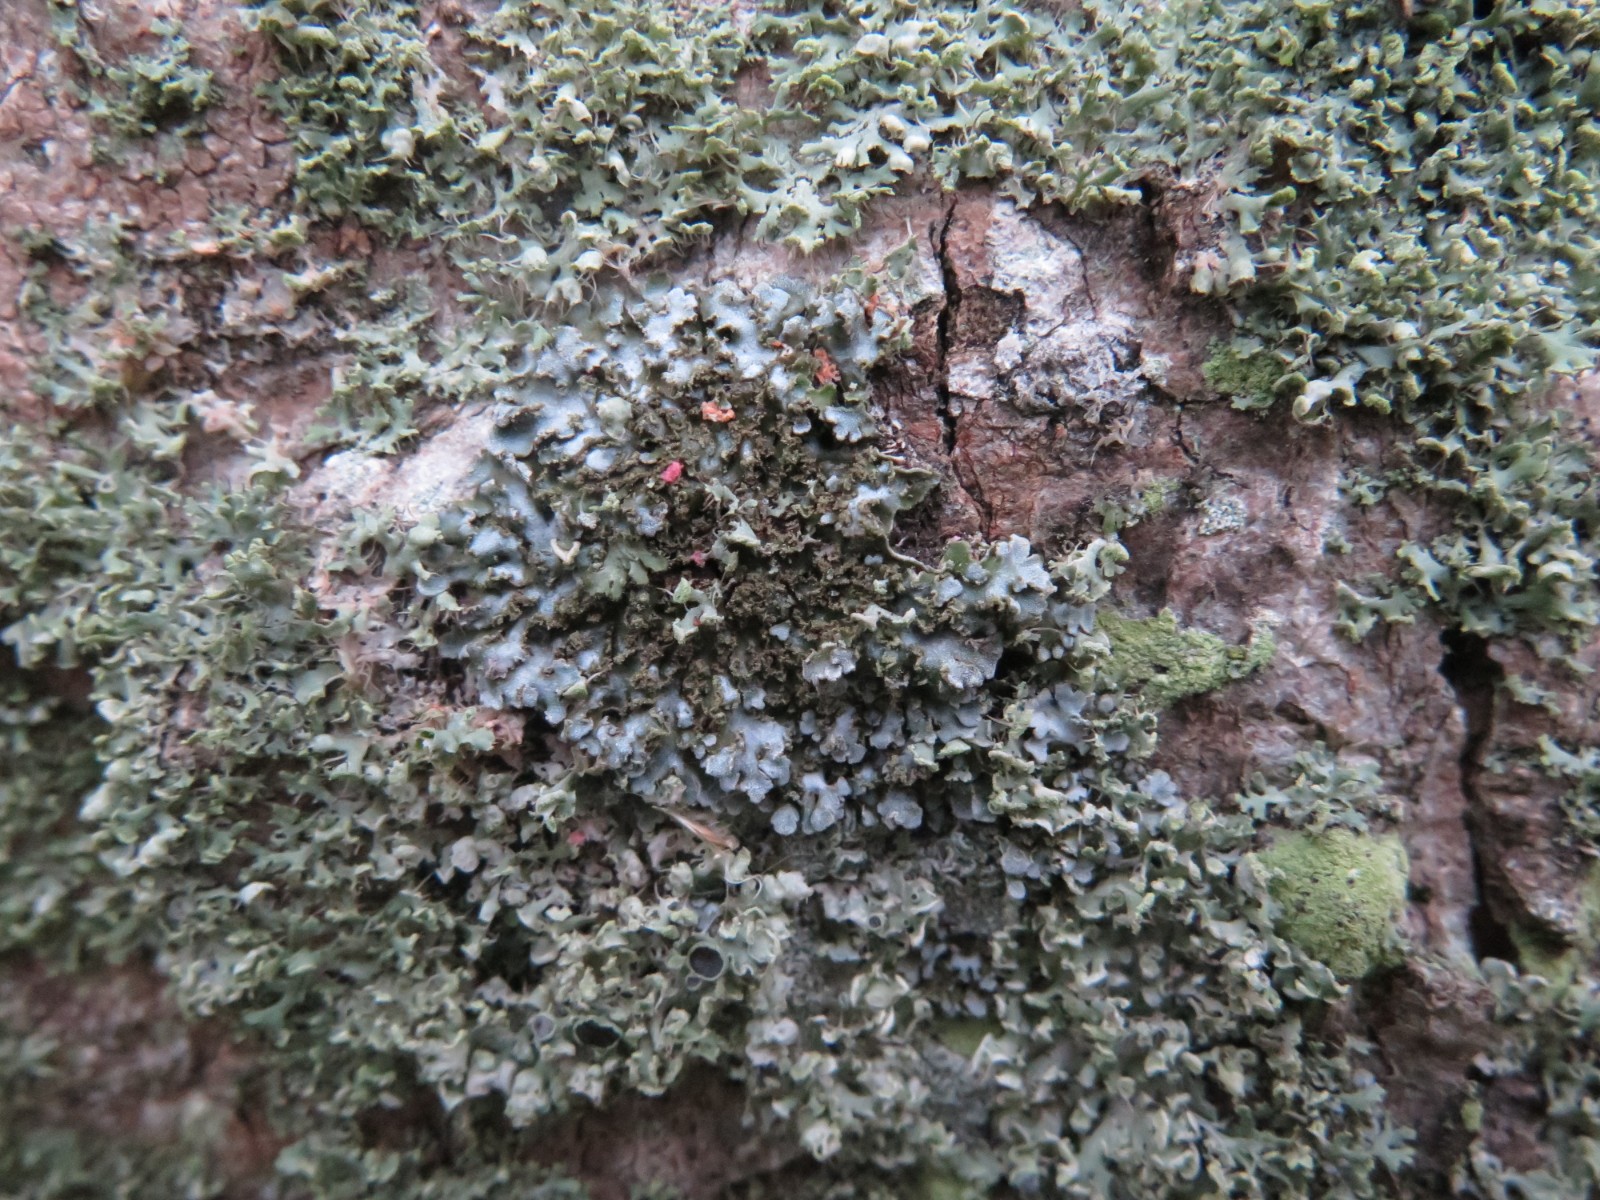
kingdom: Fungi
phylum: Ascomycota
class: Lecanoromycetes
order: Caliciales
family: Physciaceae
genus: Physconia
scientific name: Physconia enteroxantha
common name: grynet dugrosetlav
